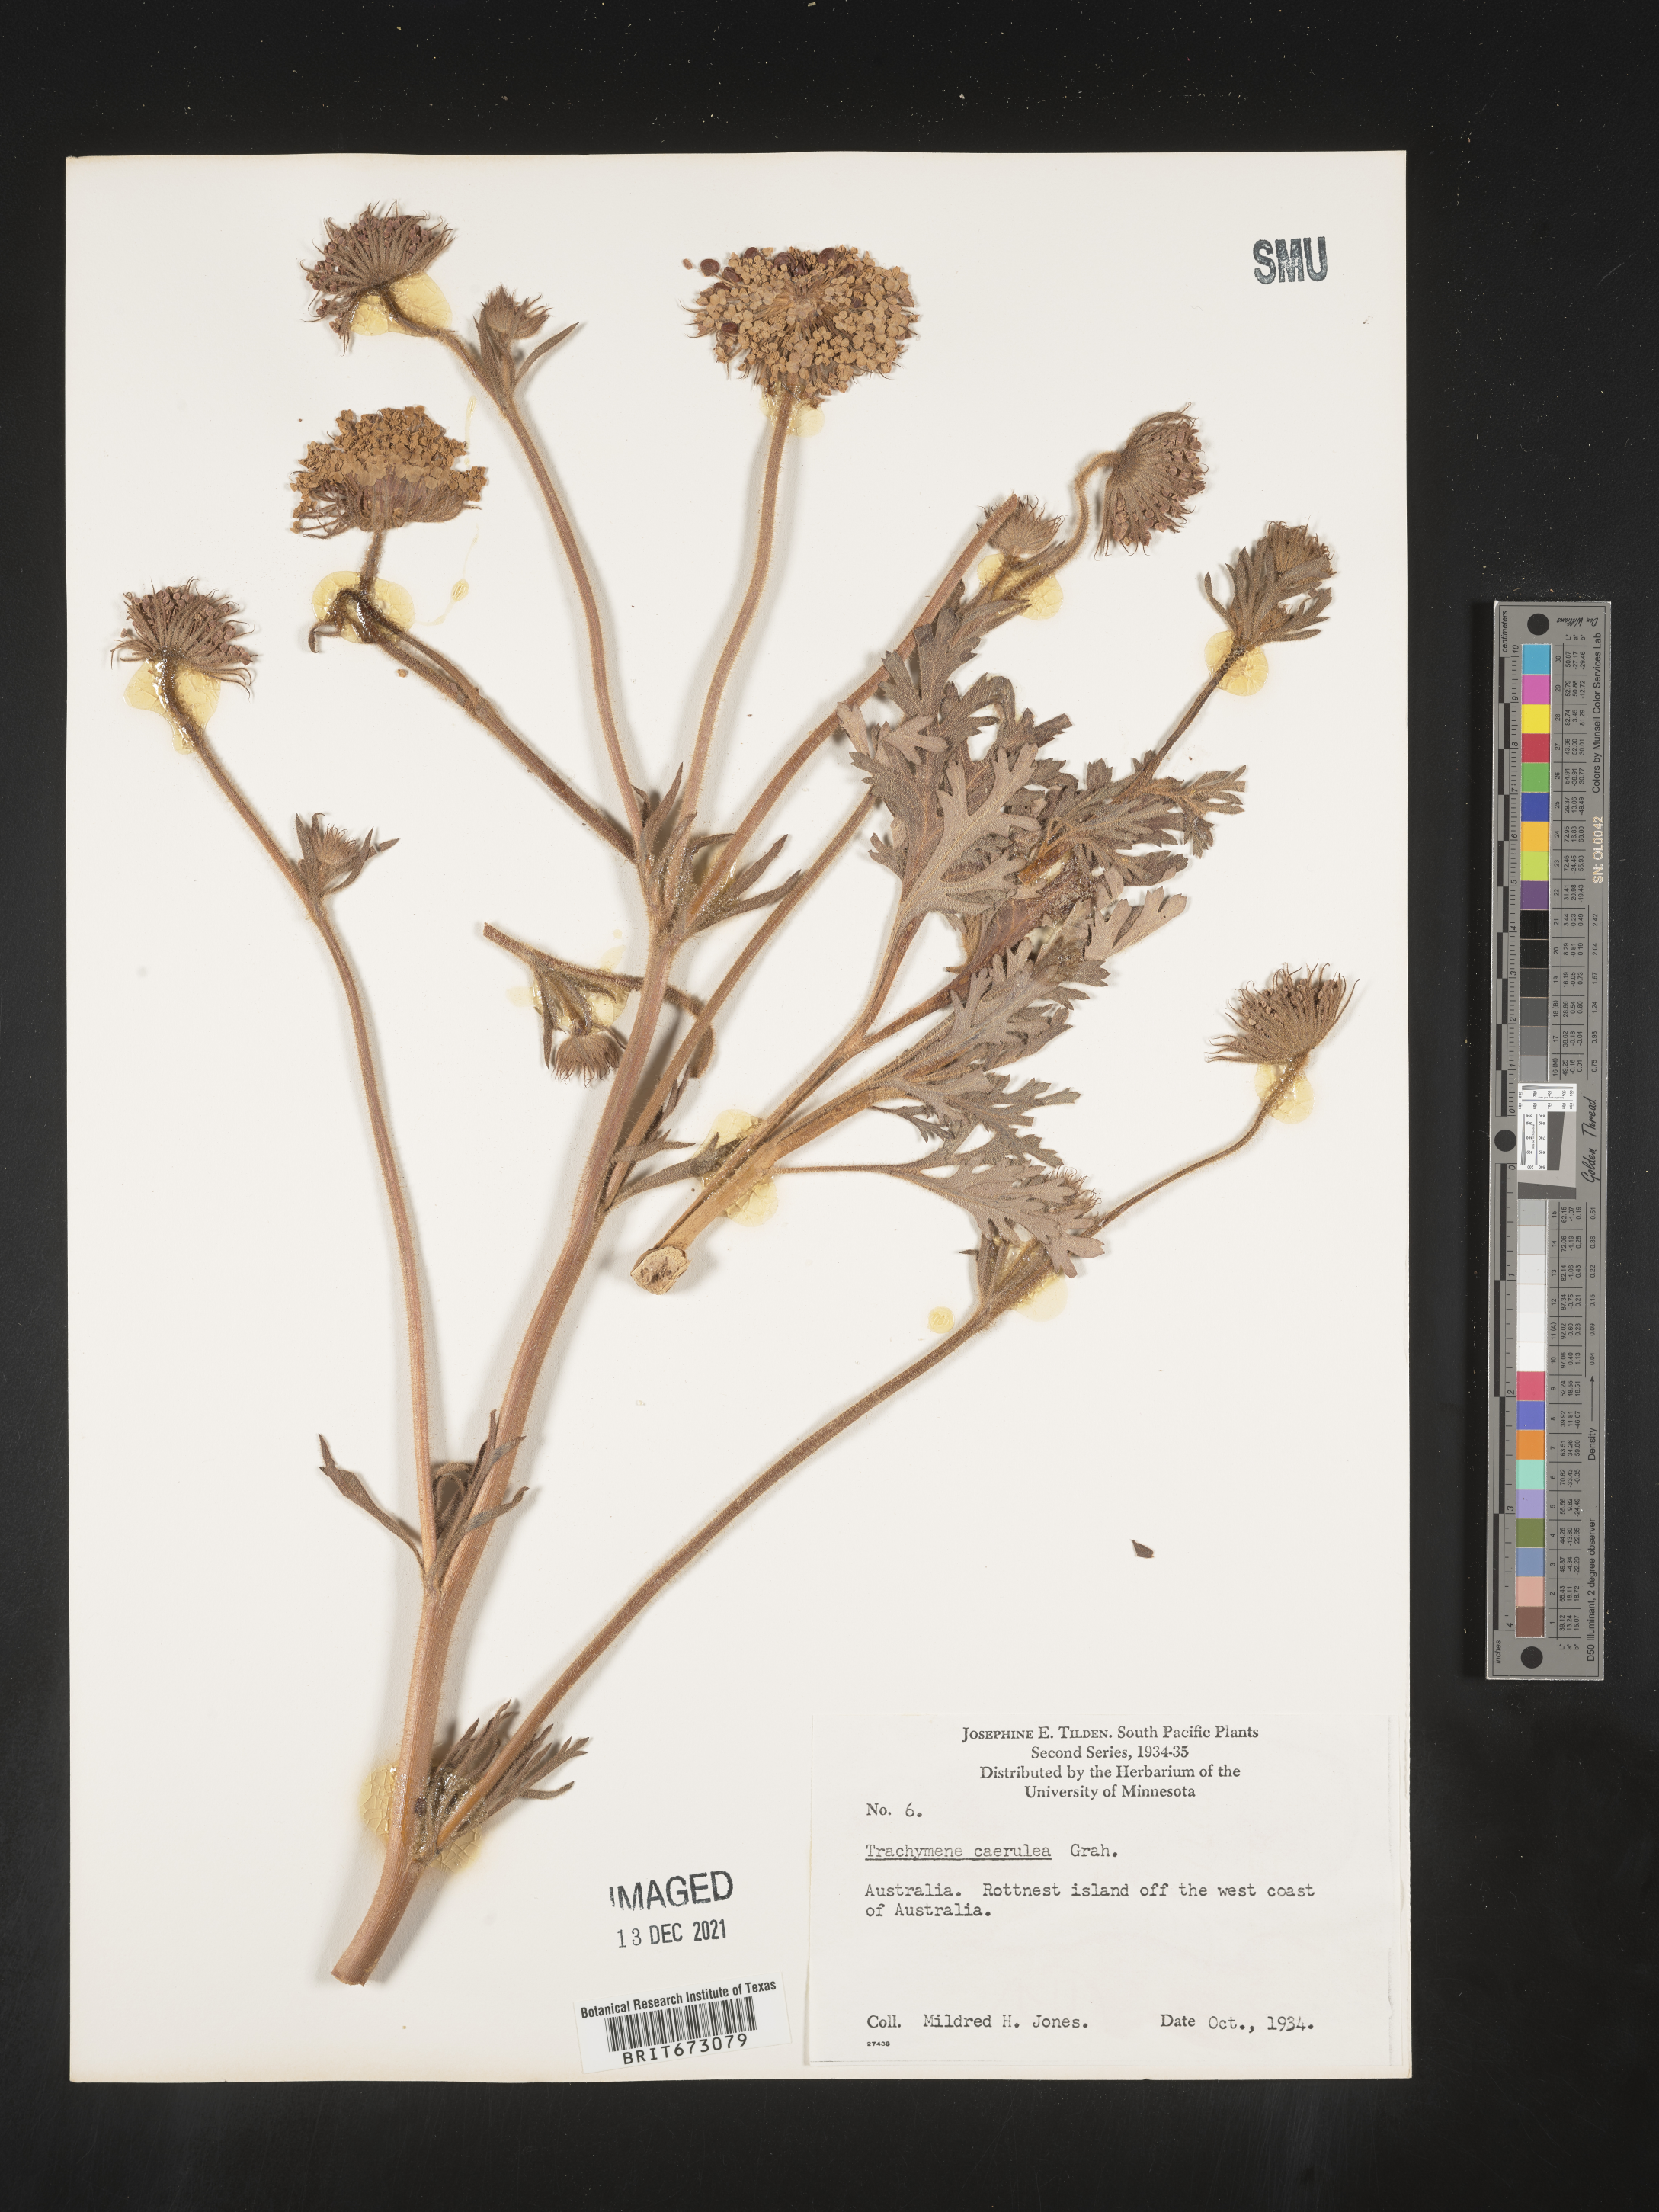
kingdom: Plantae
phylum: Tracheophyta
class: Magnoliopsida
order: Apiales
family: Araliaceae
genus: Trachymene
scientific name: Trachymene
